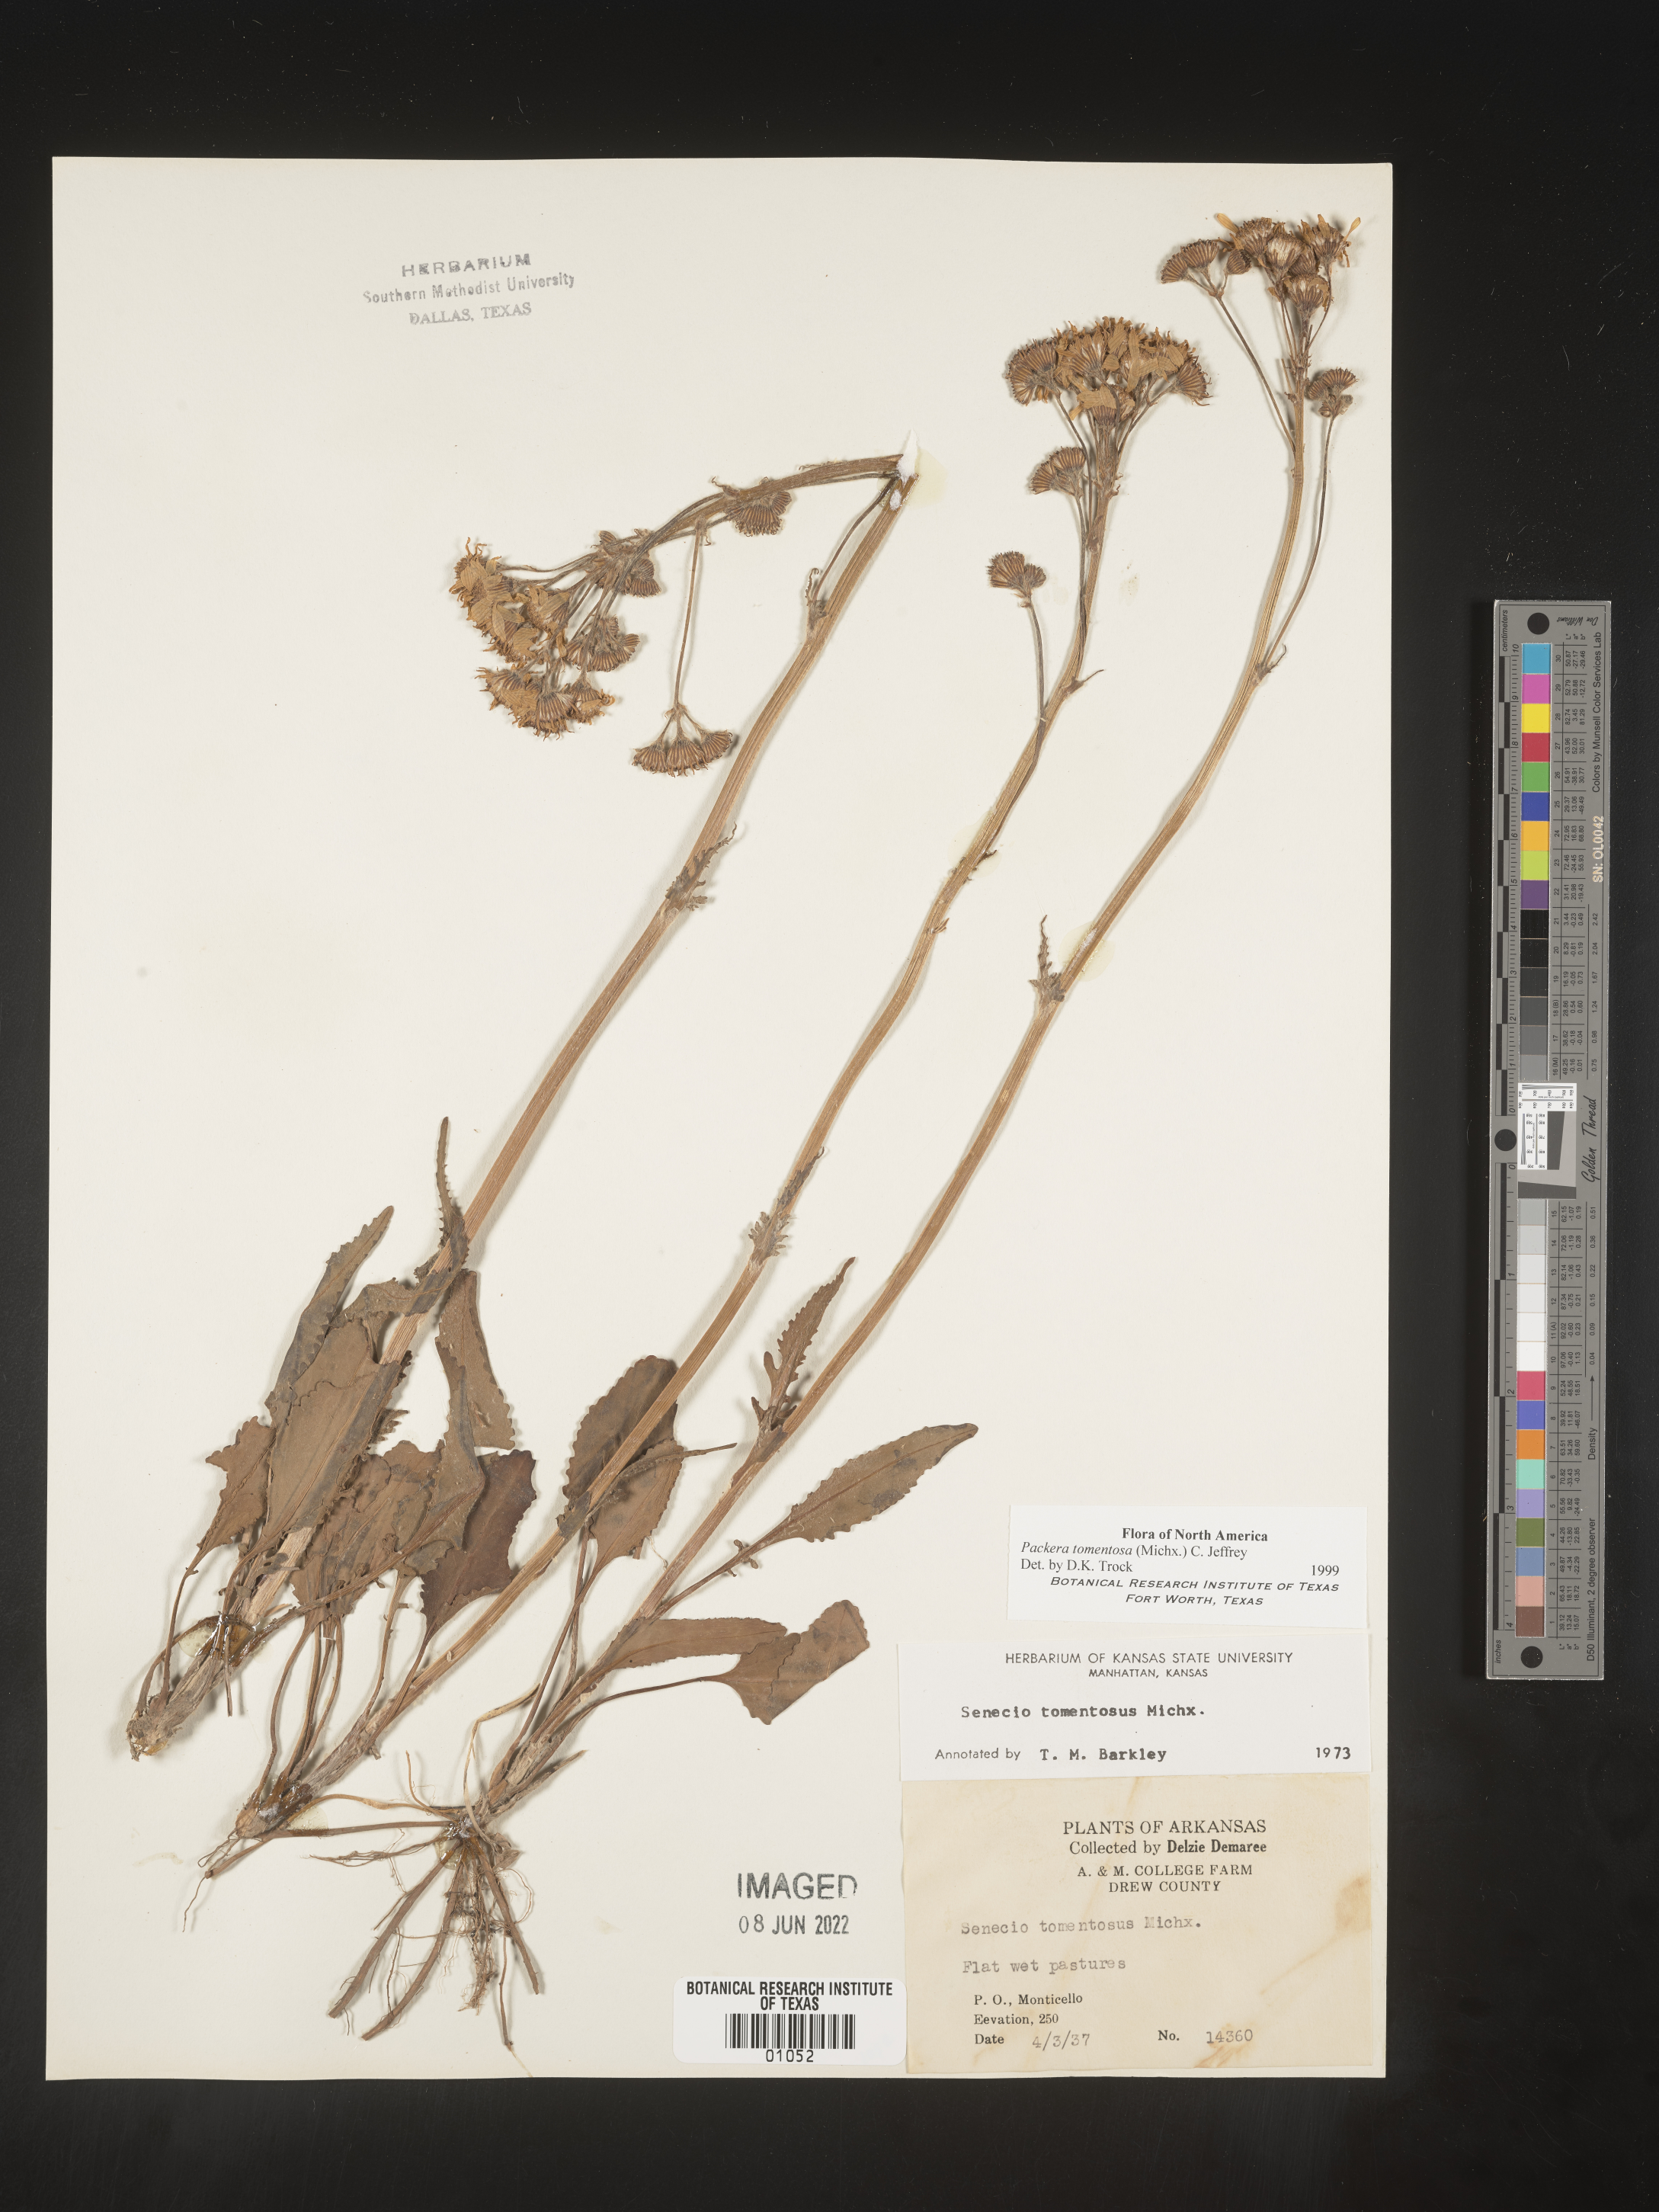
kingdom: Plantae
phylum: Tracheophyta
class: Magnoliopsida
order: Asterales
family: Asteraceae
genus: Packera
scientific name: Packera dubia
